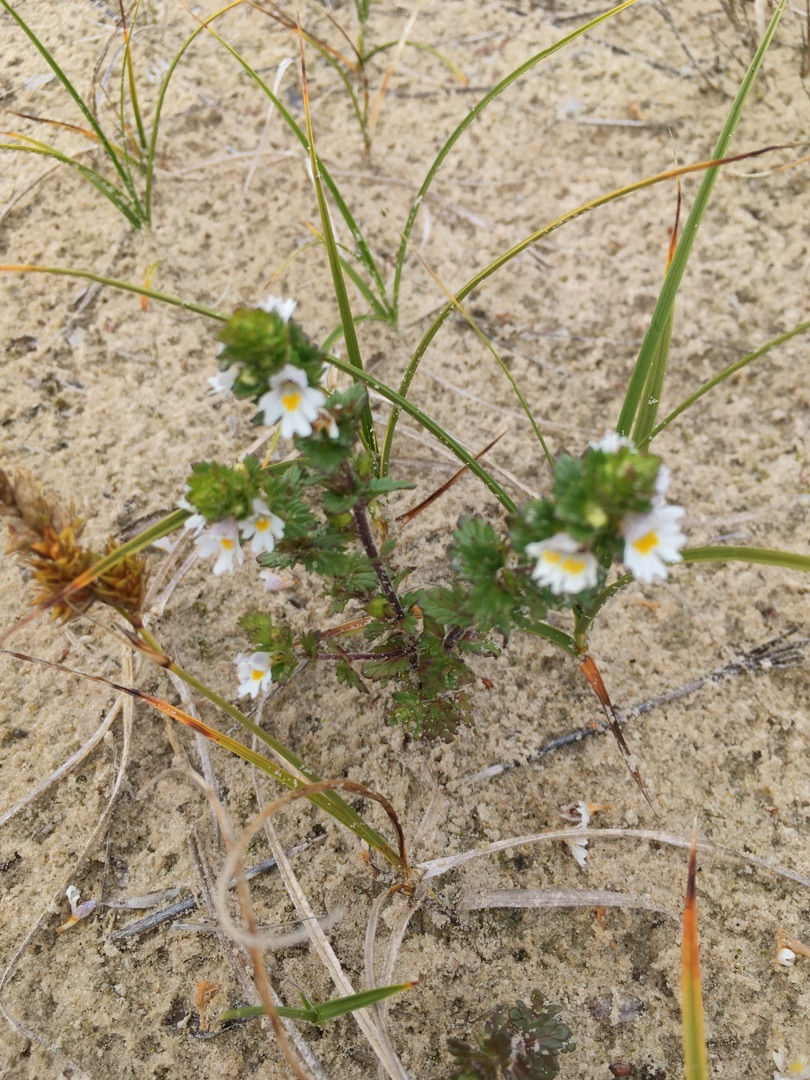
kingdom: Plantae
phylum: Tracheophyta
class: Magnoliopsida
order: Lamiales
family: Orobanchaceae
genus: Euphrasia
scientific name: Euphrasia nemorosa
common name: Kort øjentrøst
